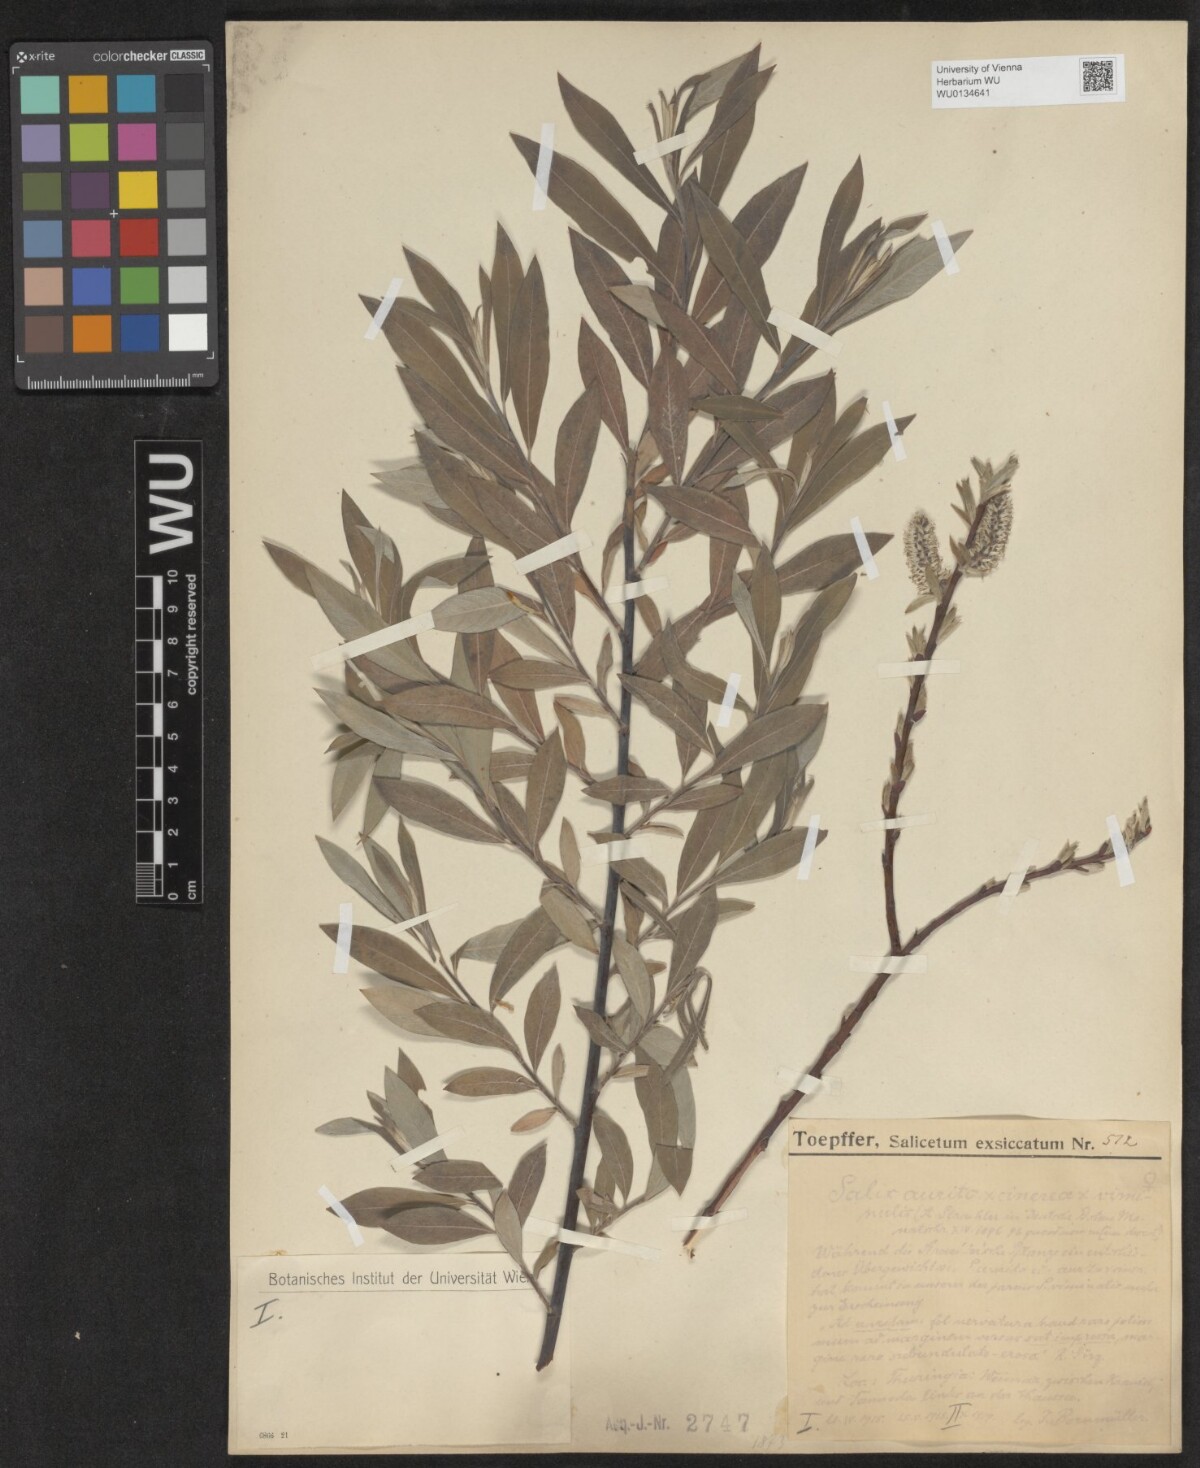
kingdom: Plantae
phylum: Tracheophyta
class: Magnoliopsida
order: Malpighiales
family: Salicaceae
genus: Salix
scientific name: Salix
